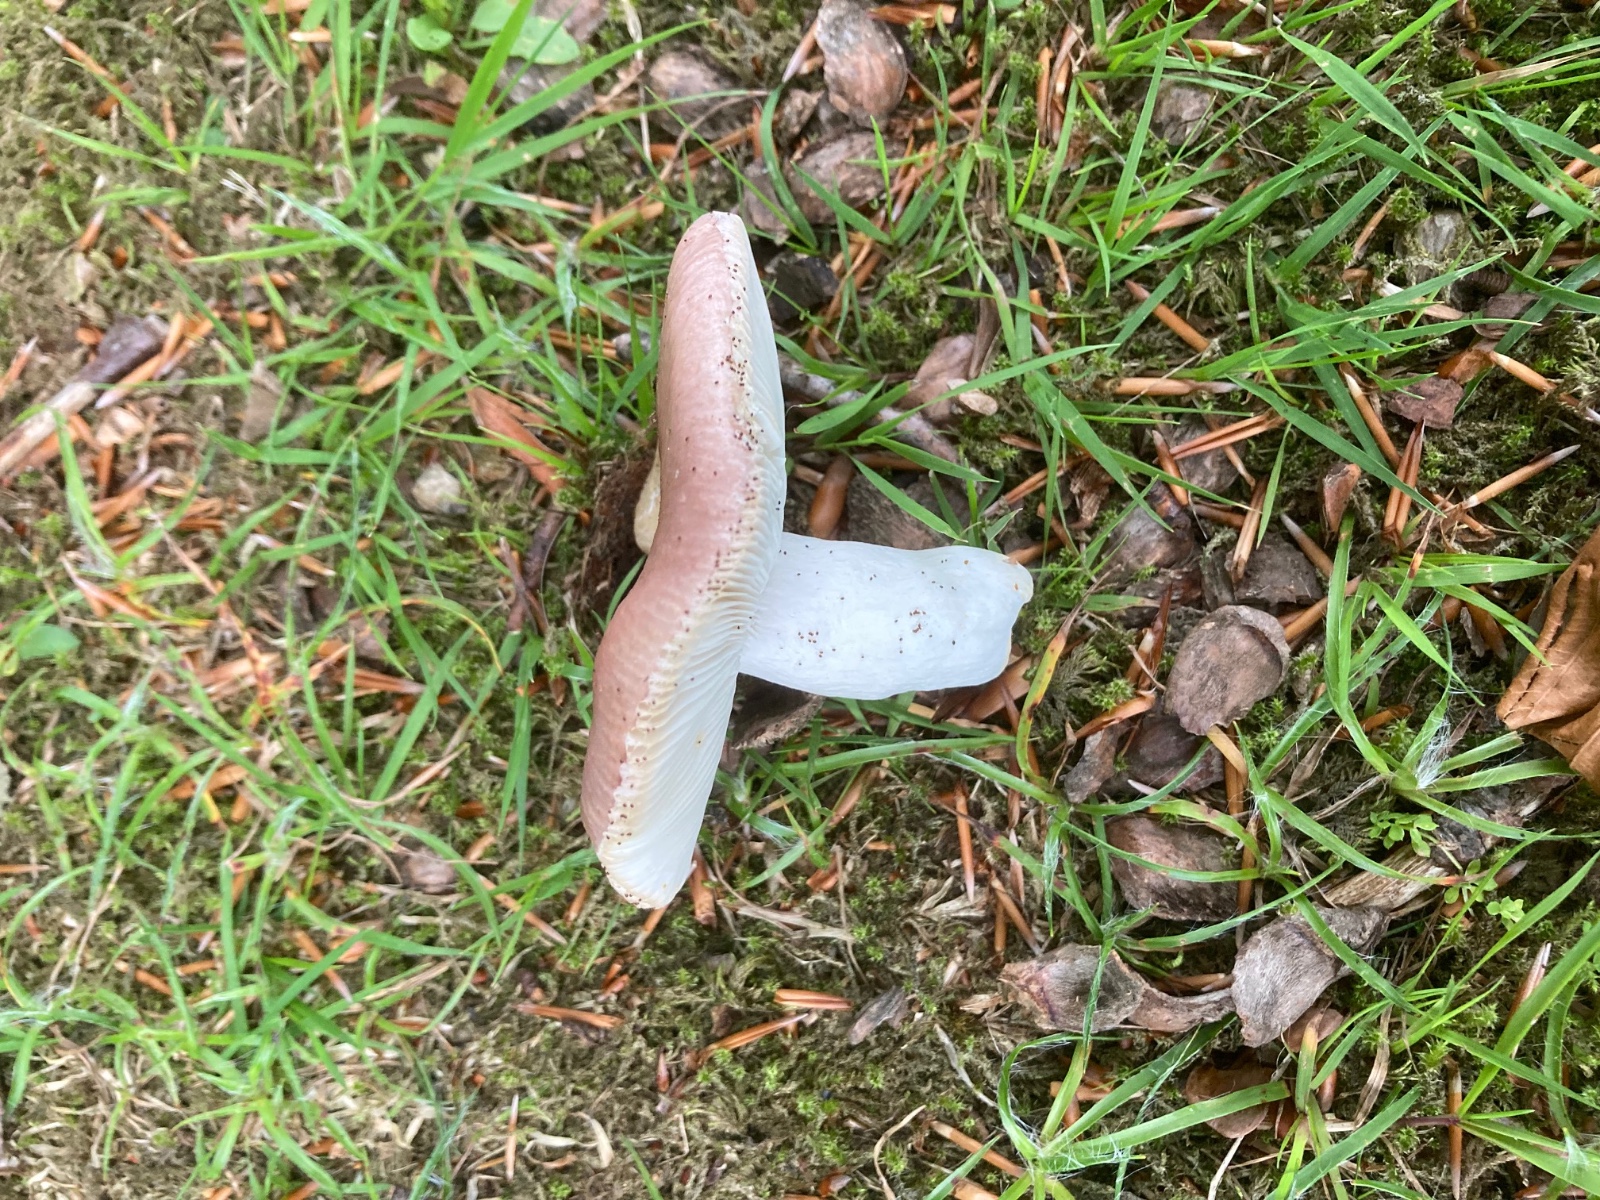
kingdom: Fungi
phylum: Basidiomycota
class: Agaricomycetes
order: Russulales
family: Russulaceae
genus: Russula
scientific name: Russula vesca
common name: spiselig skørhat
